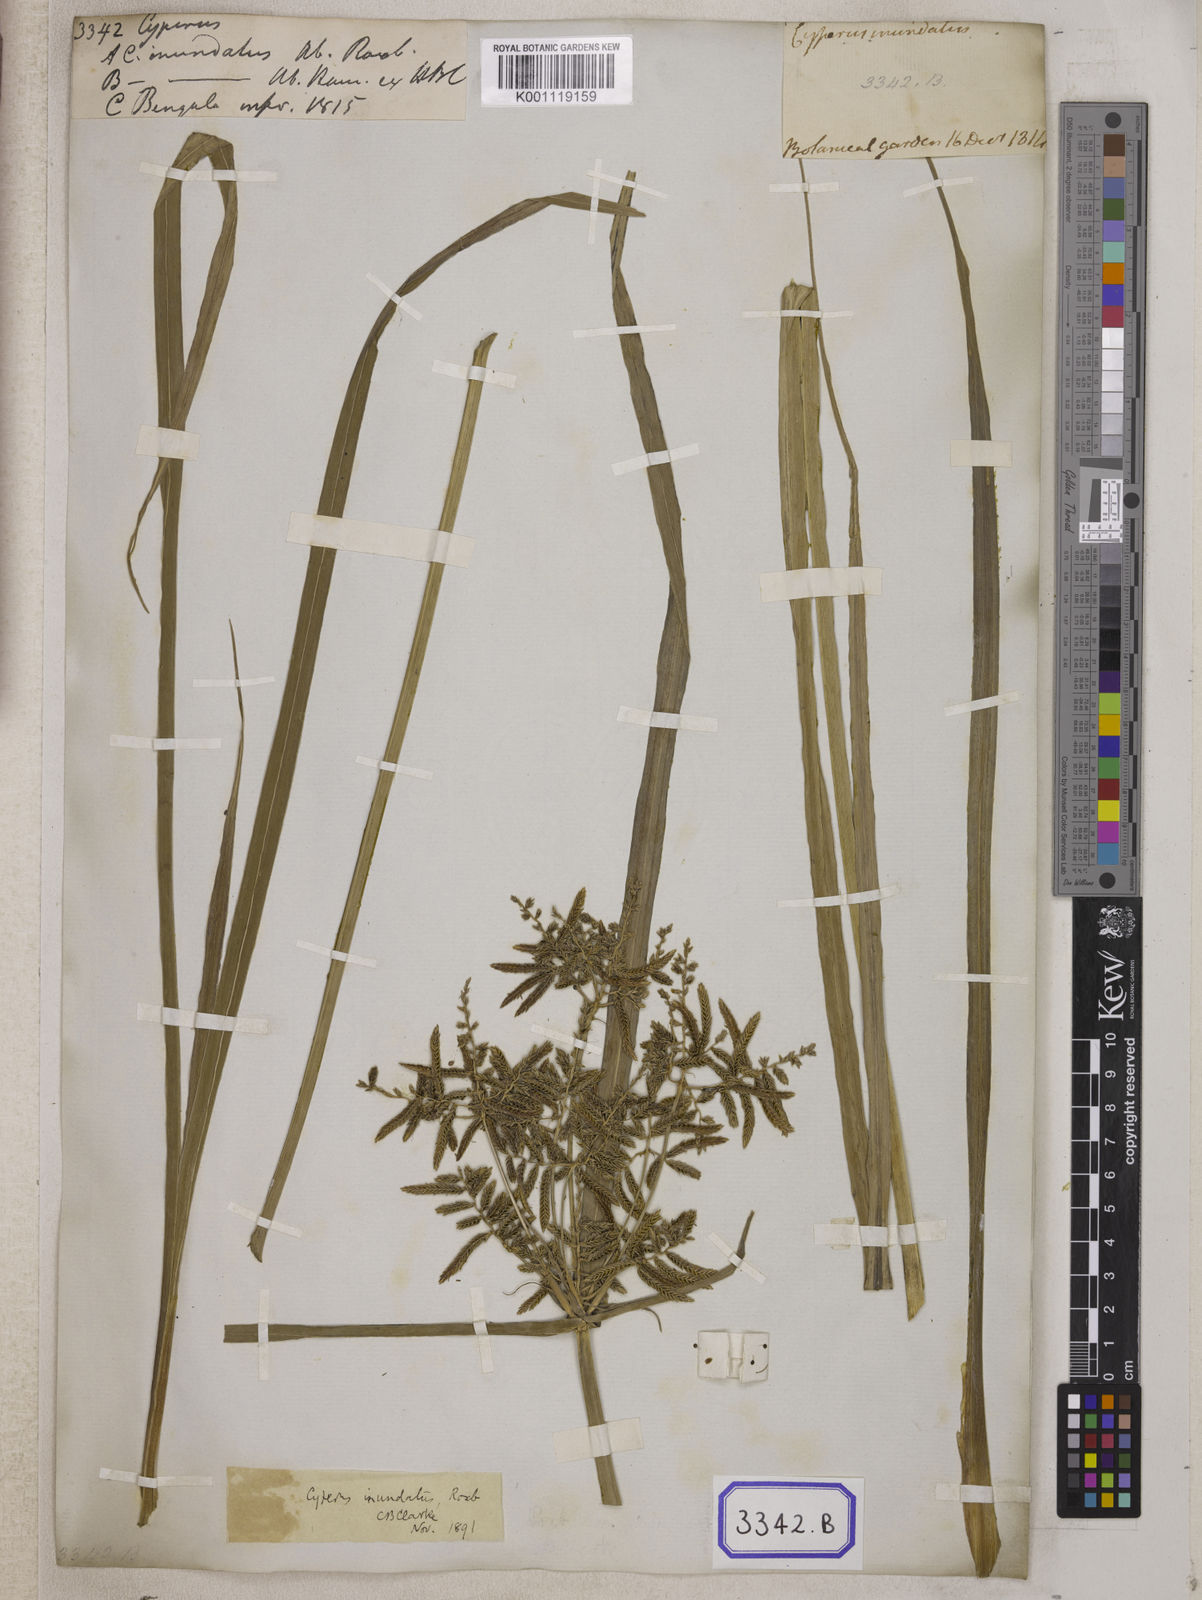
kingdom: Plantae
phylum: Tracheophyta
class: Liliopsida
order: Poales
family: Cyperaceae
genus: Cyperus
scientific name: Cyperus
